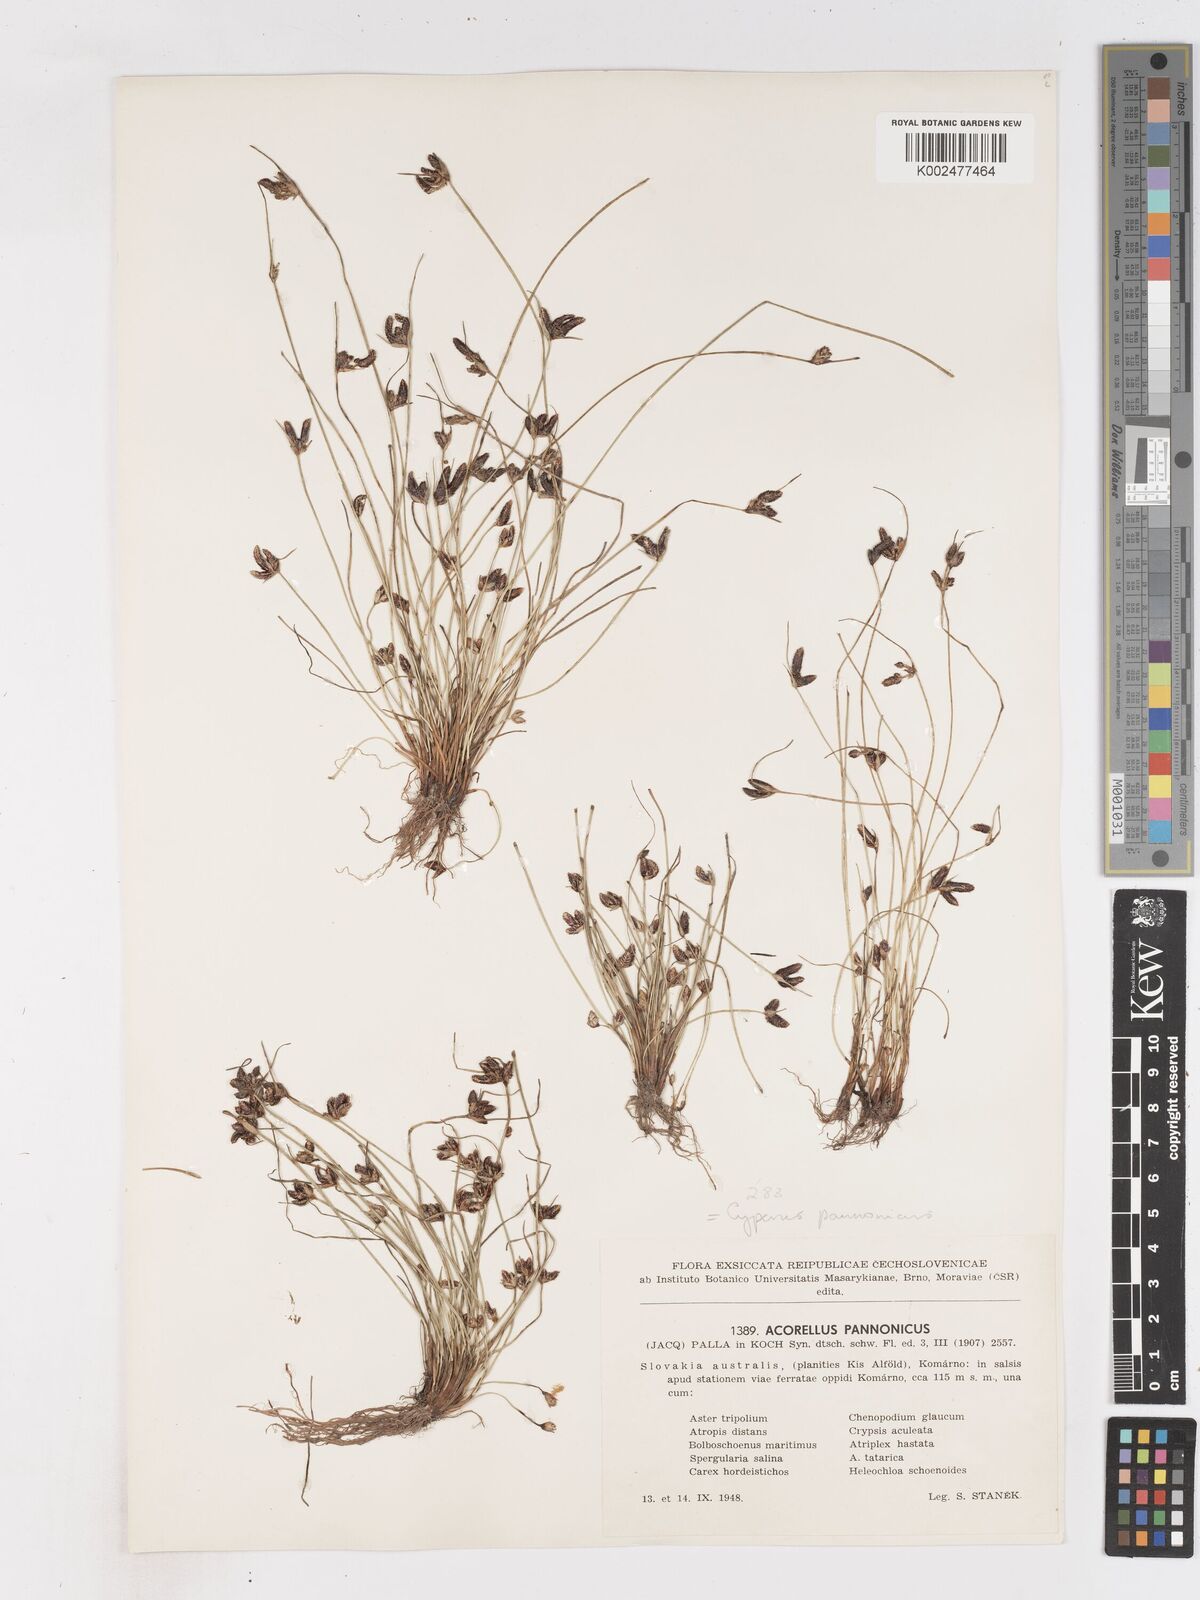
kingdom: Plantae
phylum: Tracheophyta
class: Liliopsida
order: Poales
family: Cyperaceae
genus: Cyperus
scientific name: Cyperus pannonicus
